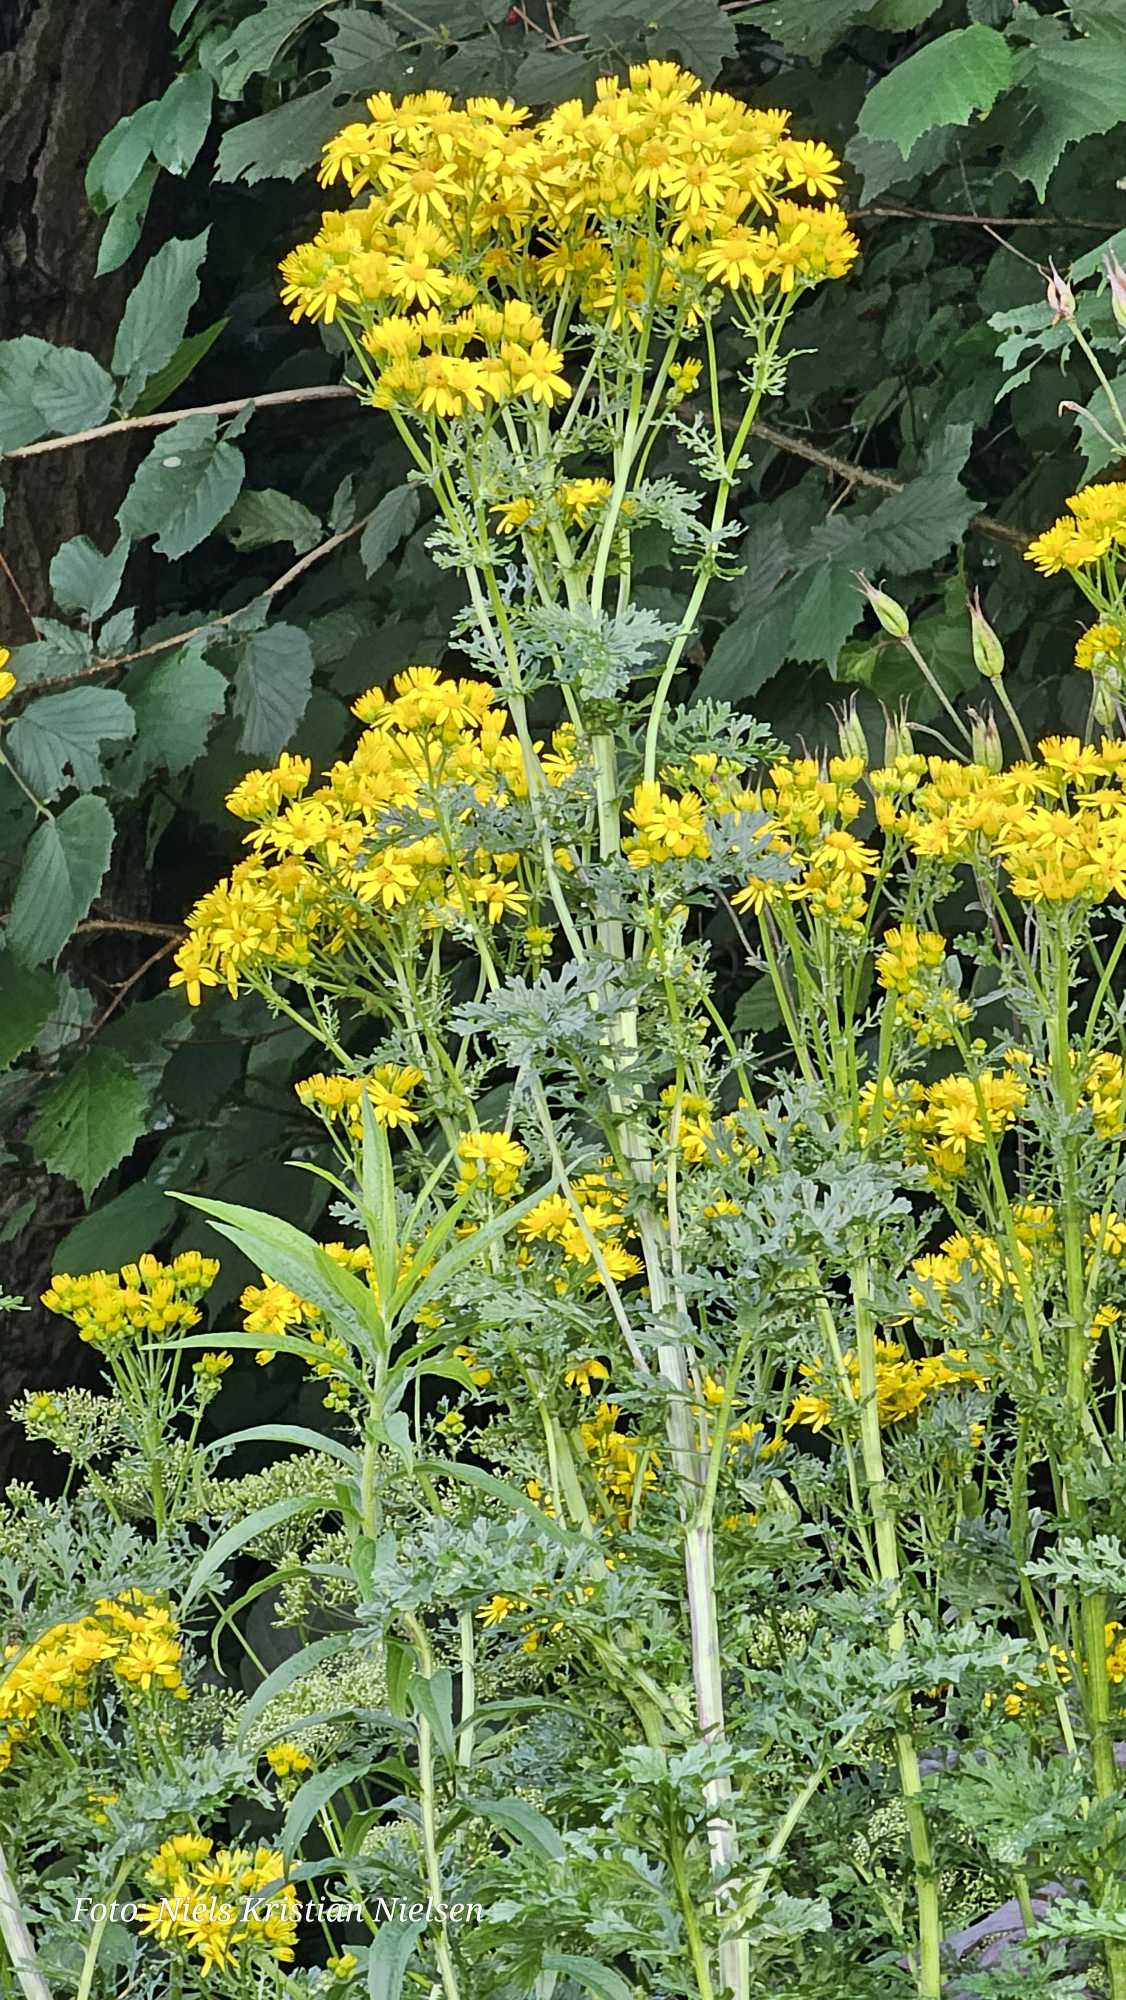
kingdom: Plantae
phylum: Tracheophyta
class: Magnoliopsida
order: Asterales
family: Asteraceae
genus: Jacobaea
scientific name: Jacobaea vulgaris
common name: Eng-brandbæger
